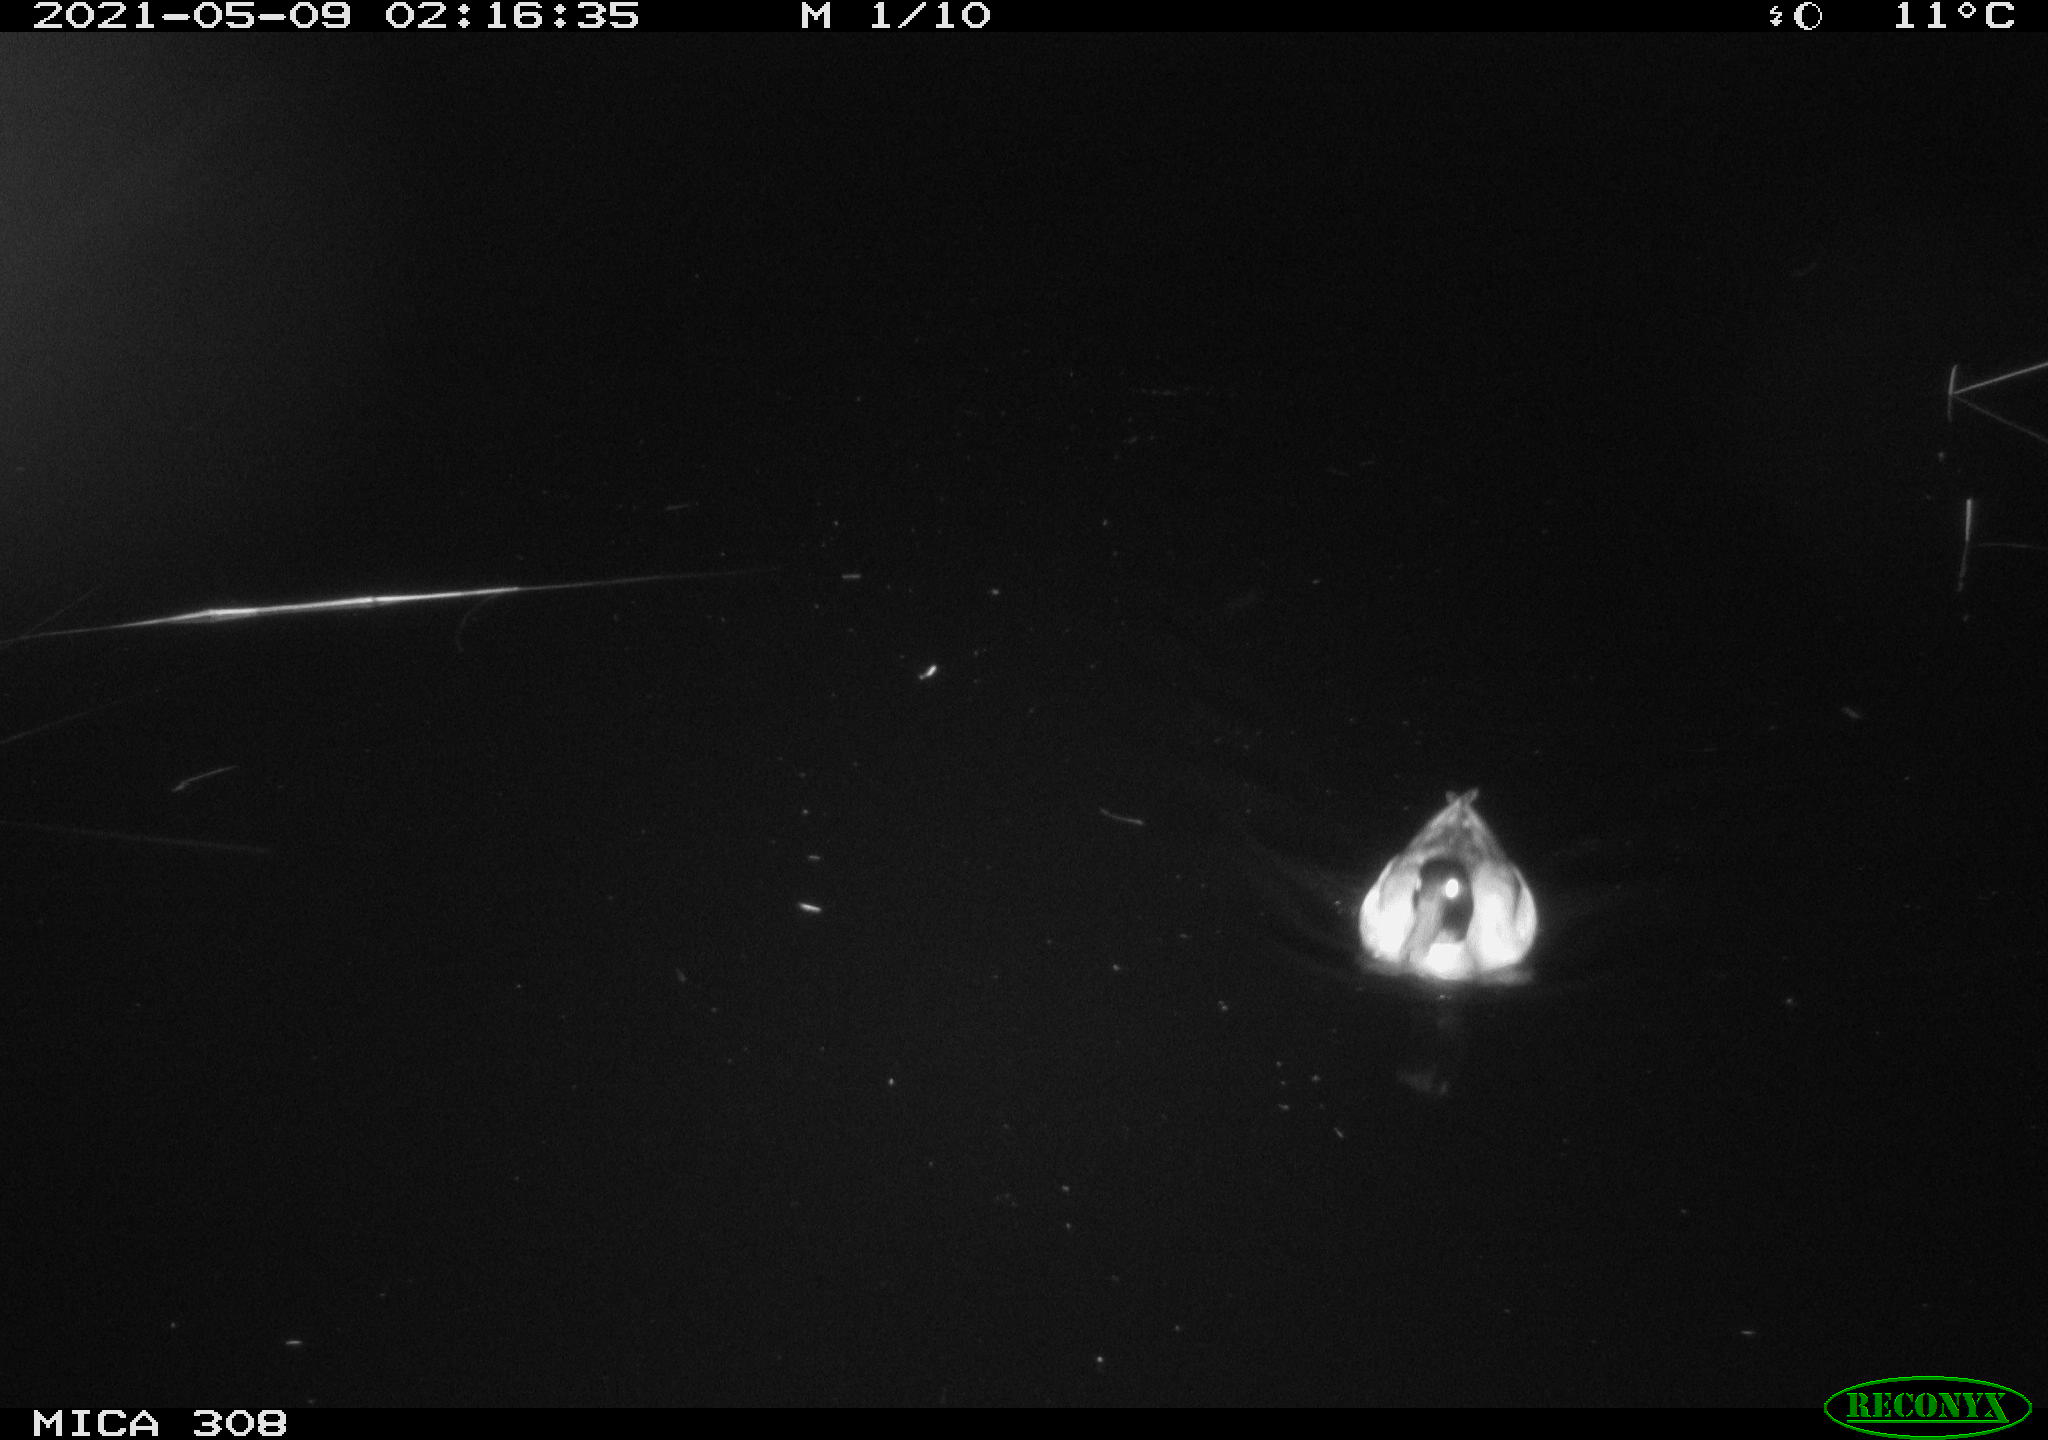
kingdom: Animalia
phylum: Chordata
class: Aves
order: Anseriformes
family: Anatidae
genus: Anas
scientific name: Anas platyrhynchos
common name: Mallard
